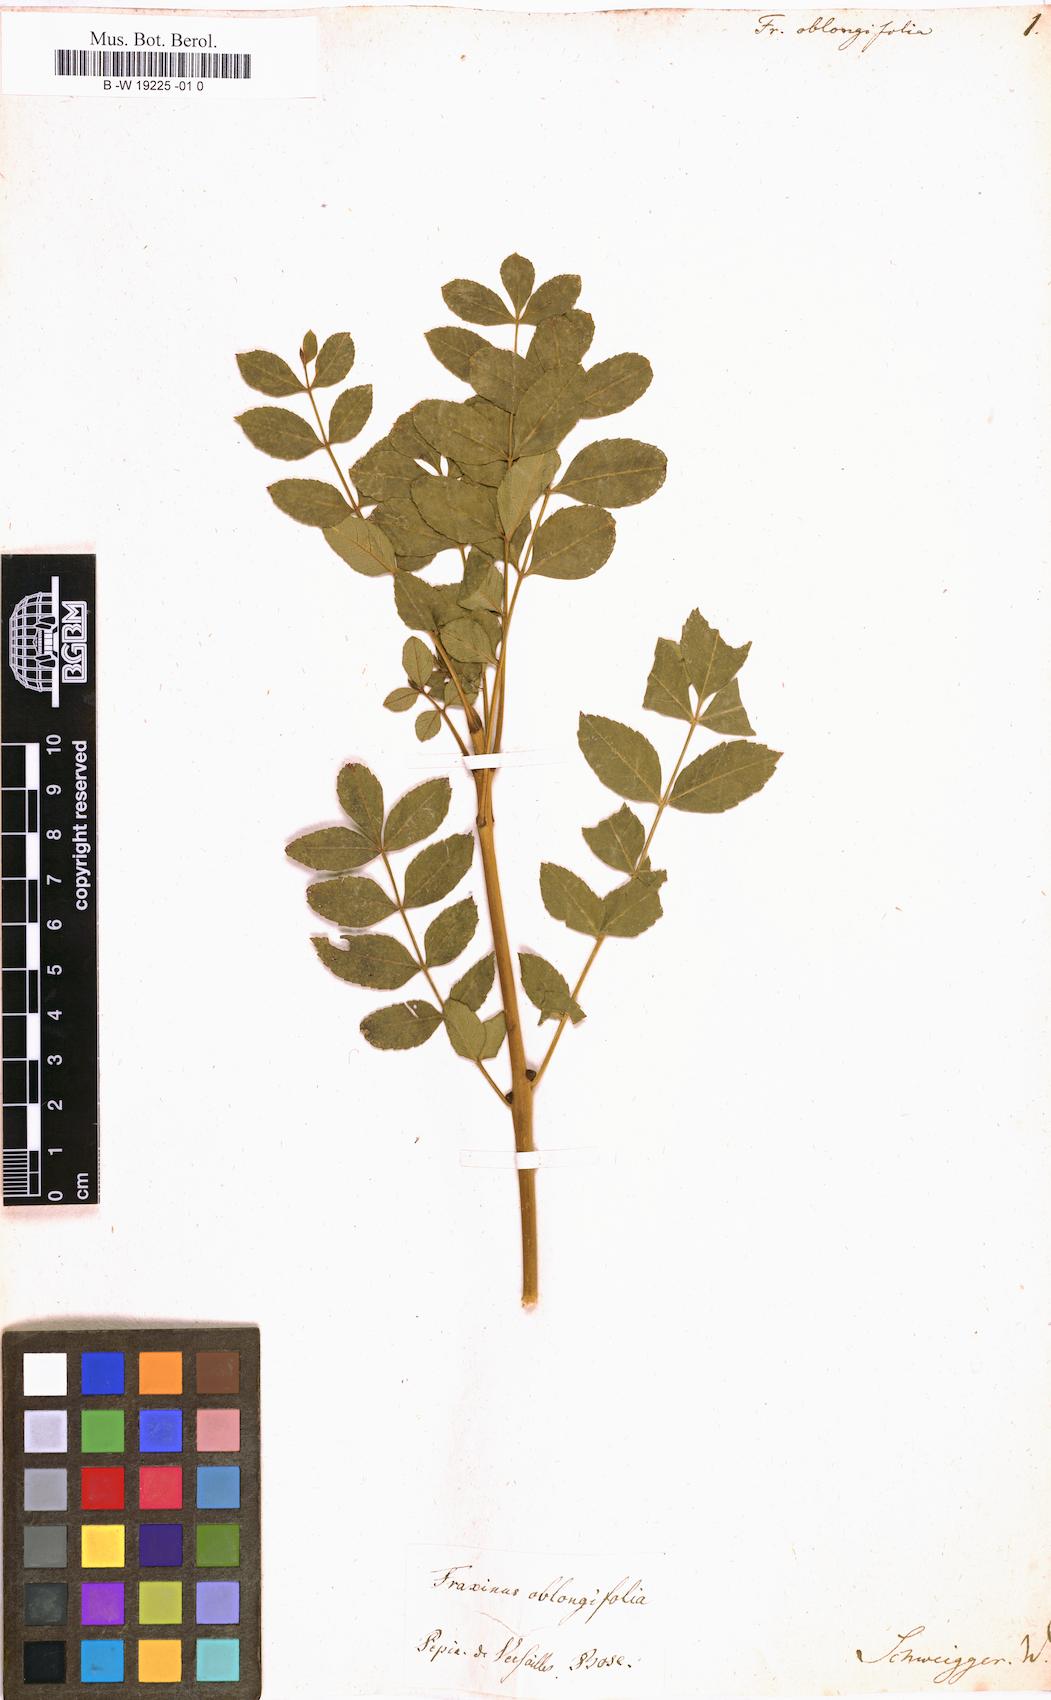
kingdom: Plantae
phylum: Tracheophyta
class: Magnoliopsida
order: Lamiales
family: Oleaceae
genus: Fraxinus
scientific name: Fraxinus
